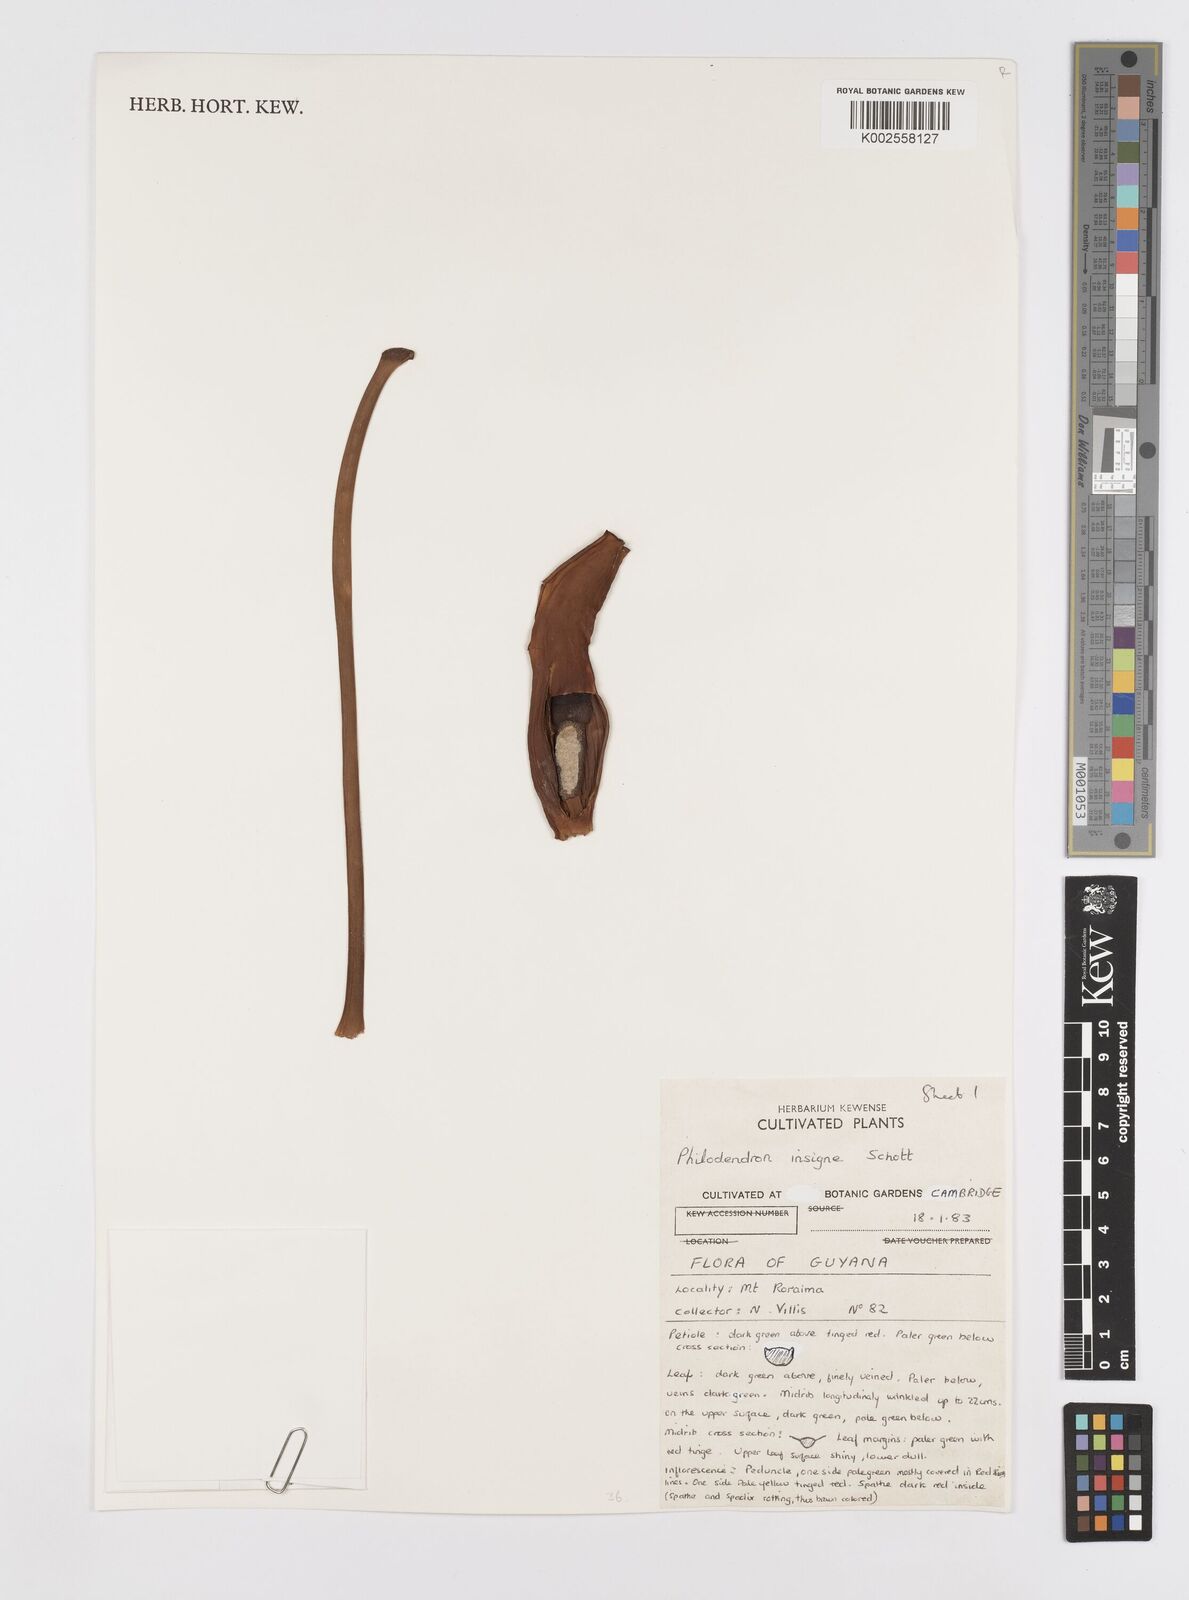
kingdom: Plantae
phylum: Tracheophyta
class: Liliopsida
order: Alismatales
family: Araceae
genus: Philodendron
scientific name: Philodendron insigne
